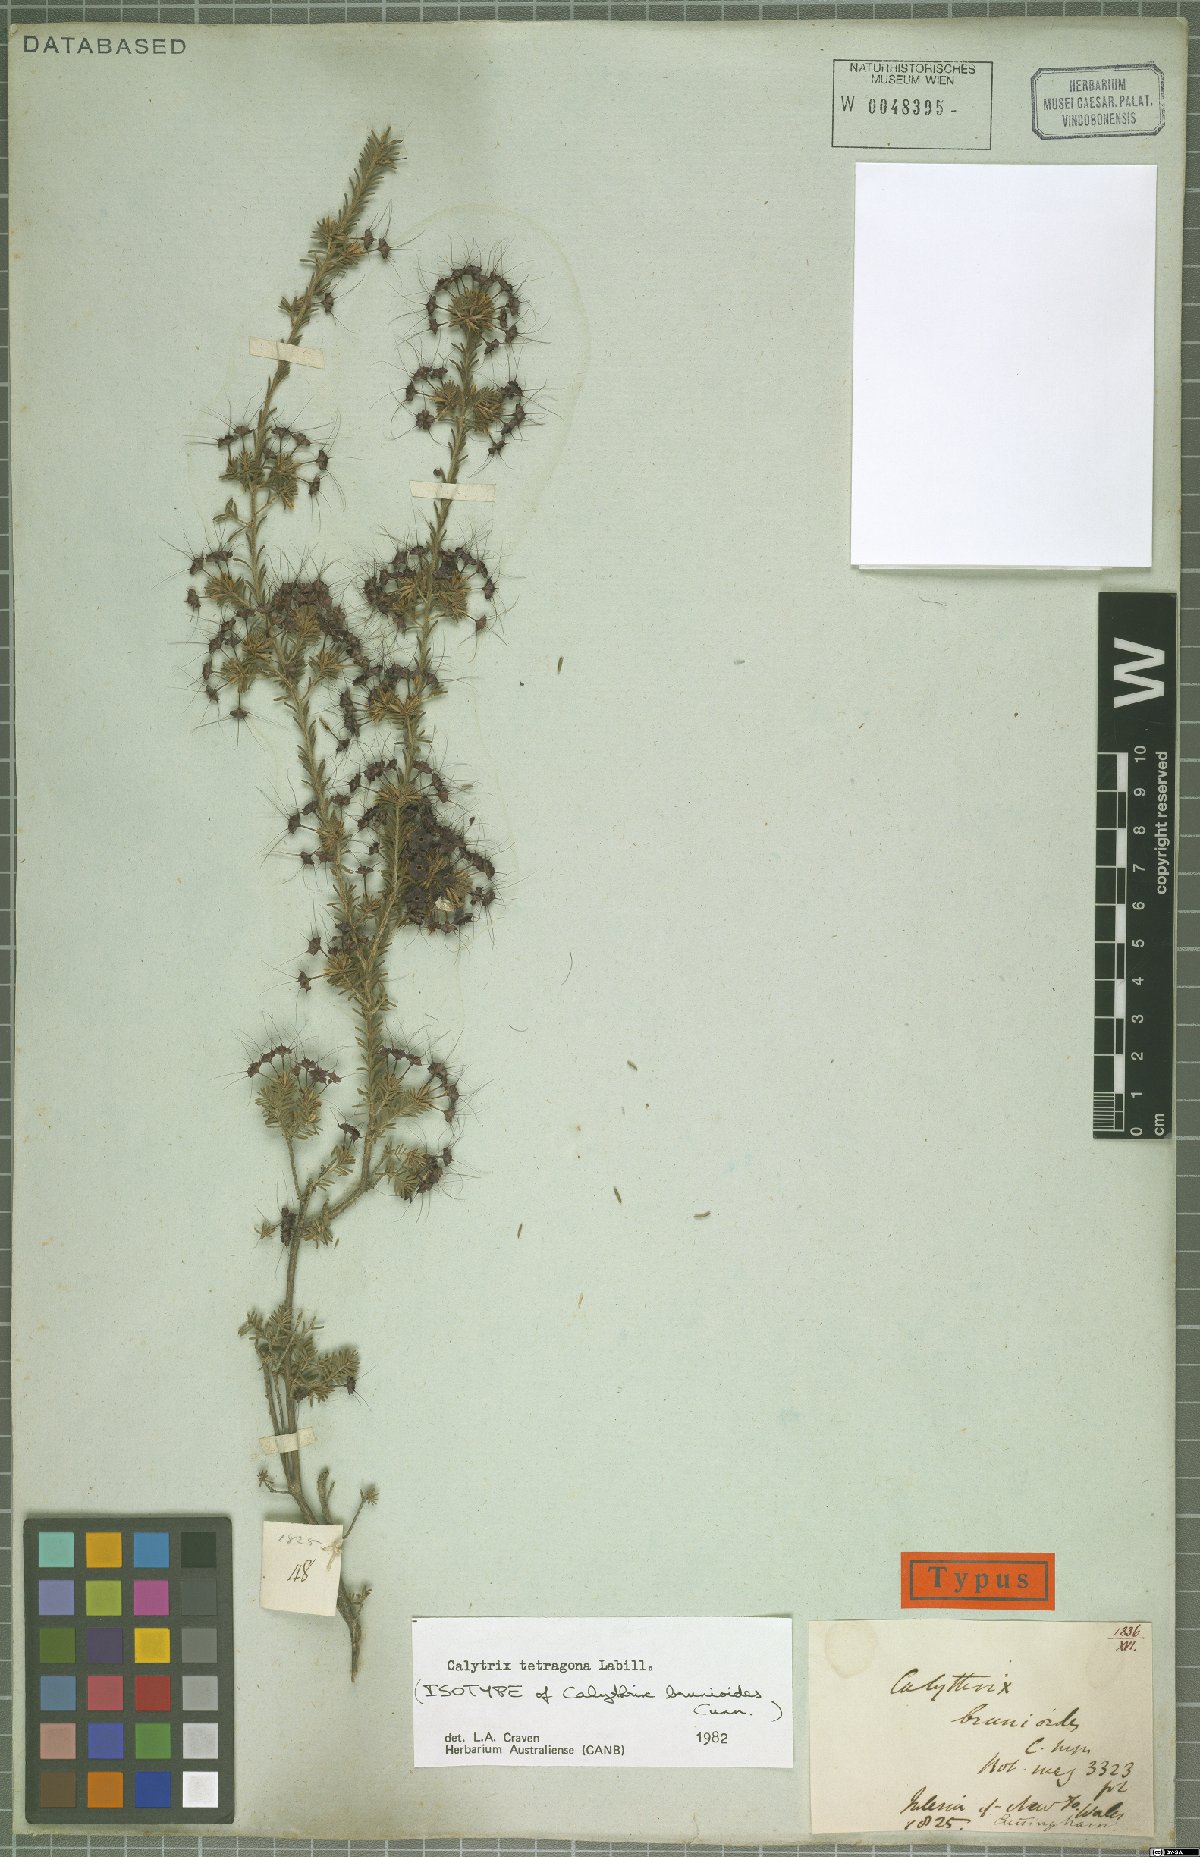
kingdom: Plantae
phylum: Tracheophyta
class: Magnoliopsida
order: Myrtales
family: Myrtaceae
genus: Calytrix
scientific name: Calytrix tetragona
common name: Common fringe myrtle
